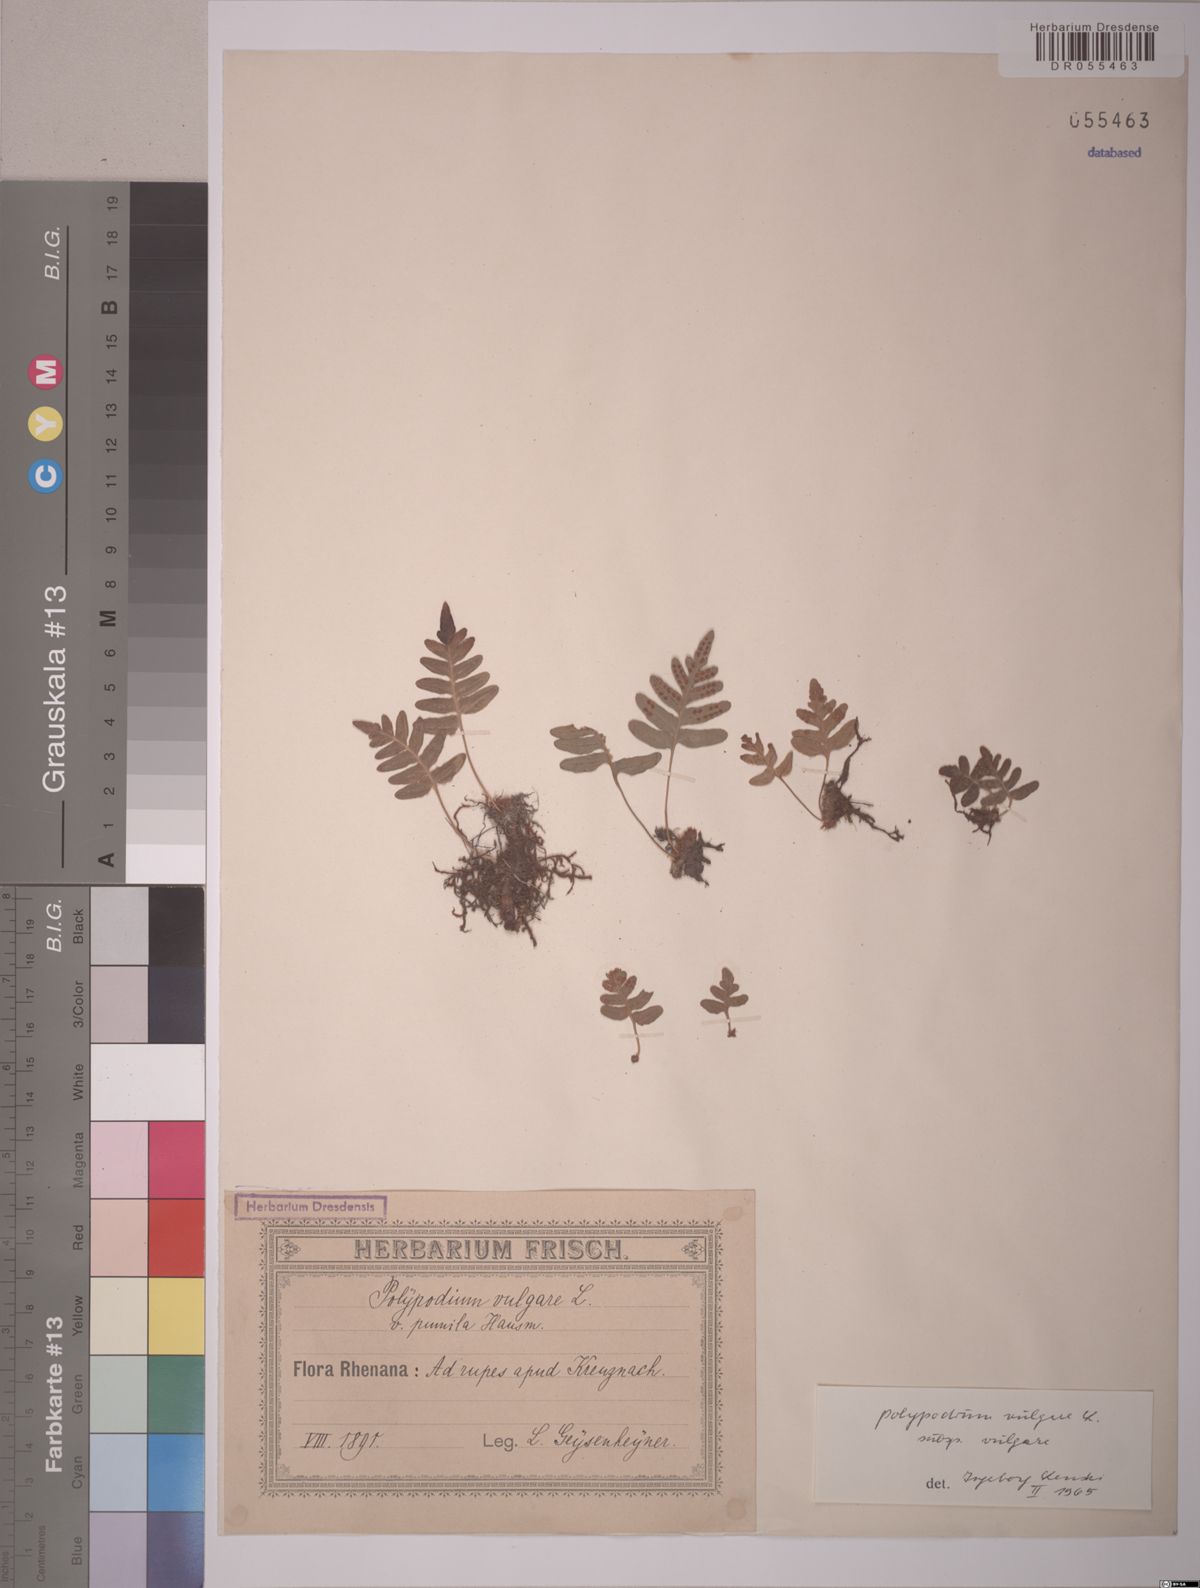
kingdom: Plantae
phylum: Tracheophyta
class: Polypodiopsida
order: Polypodiales
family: Polypodiaceae
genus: Polypodium
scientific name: Polypodium vulgare
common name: Common polypody
